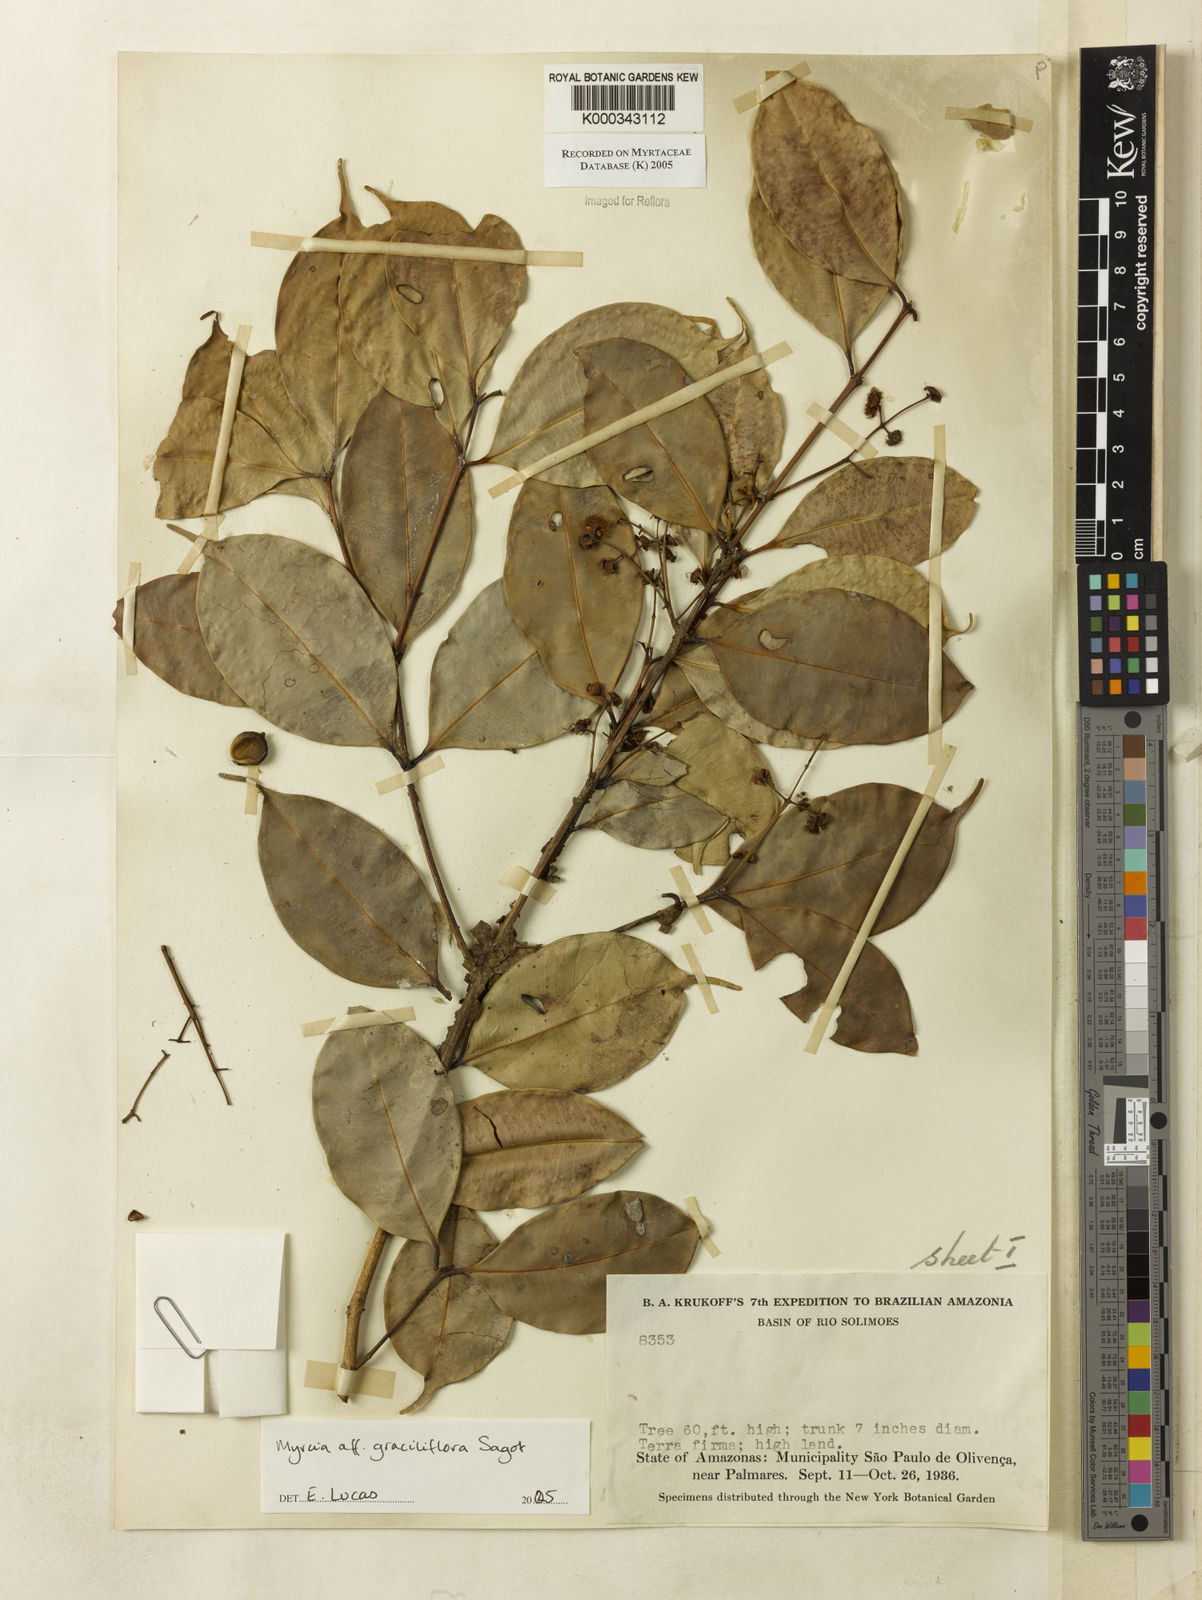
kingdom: Plantae
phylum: Tracheophyta
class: Magnoliopsida
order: Myrtales
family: Myrtaceae
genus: Myrcia
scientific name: Myrcia graciliflora
